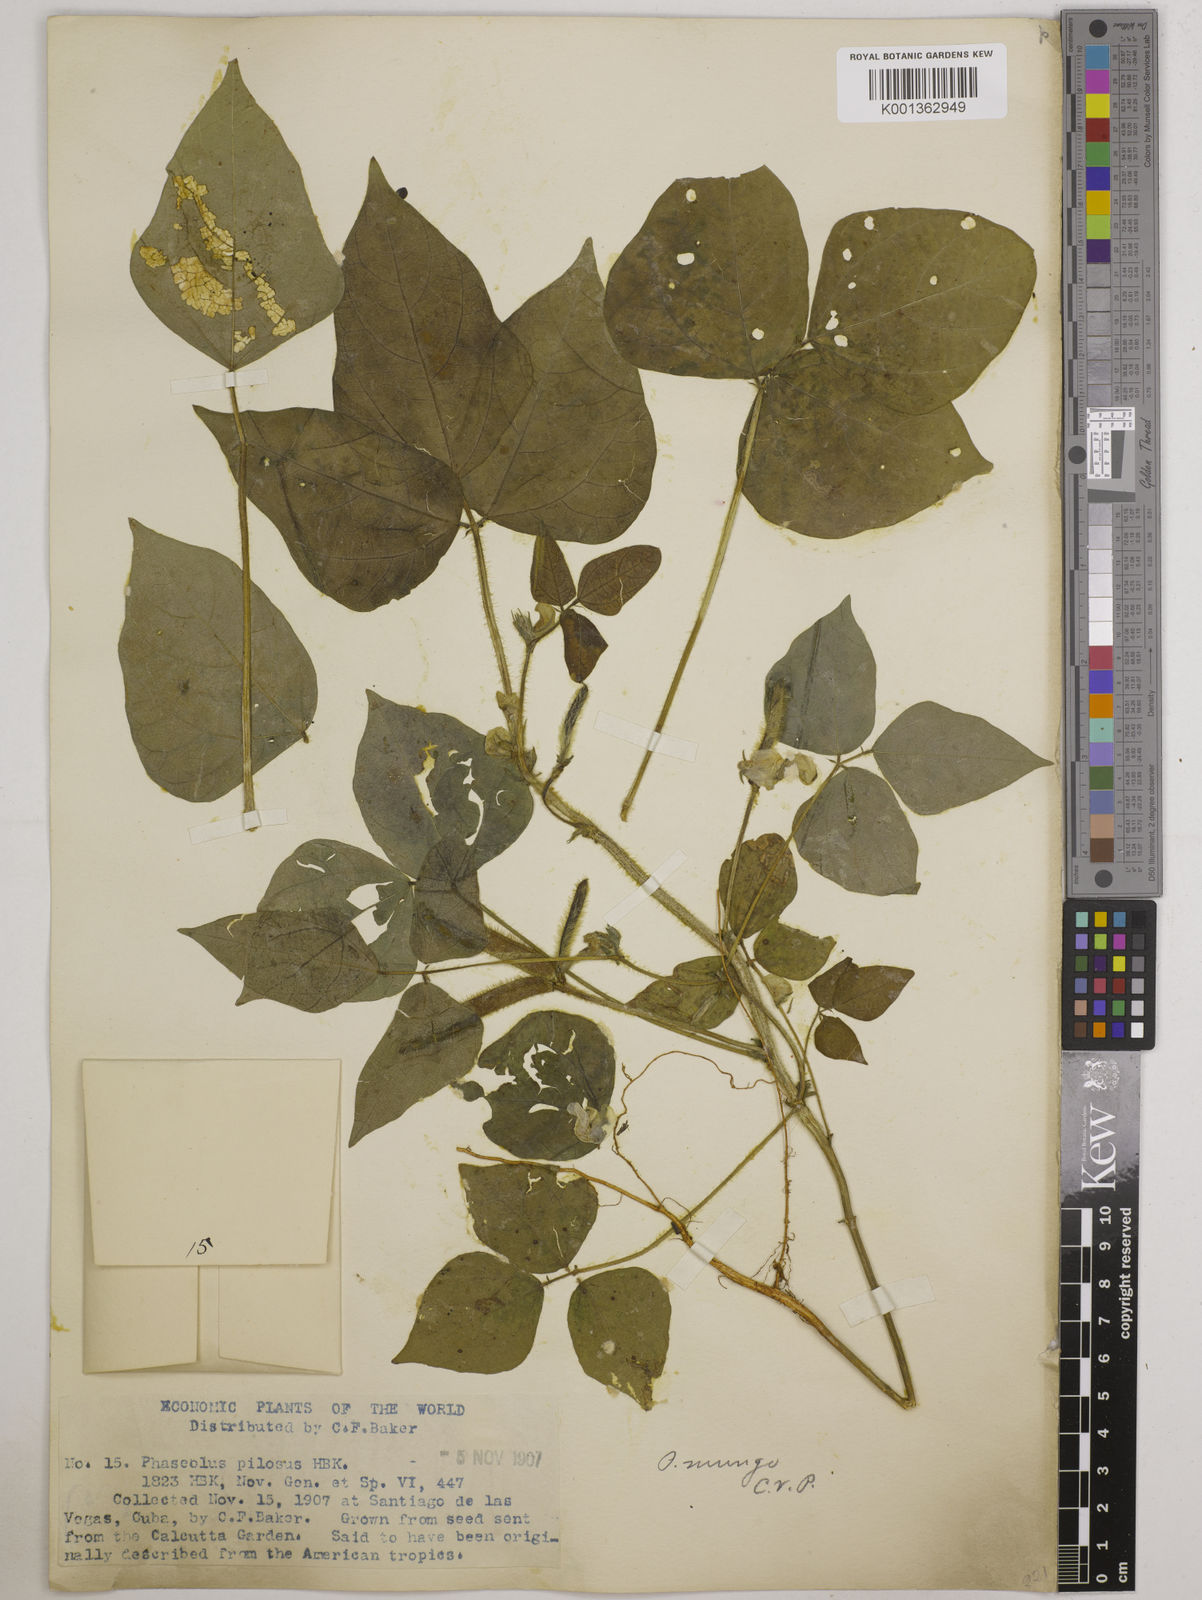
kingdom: Plantae
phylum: Tracheophyta
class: Magnoliopsida
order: Fabales
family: Fabaceae
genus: Vigna
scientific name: Vigna mungo
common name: Black gram
